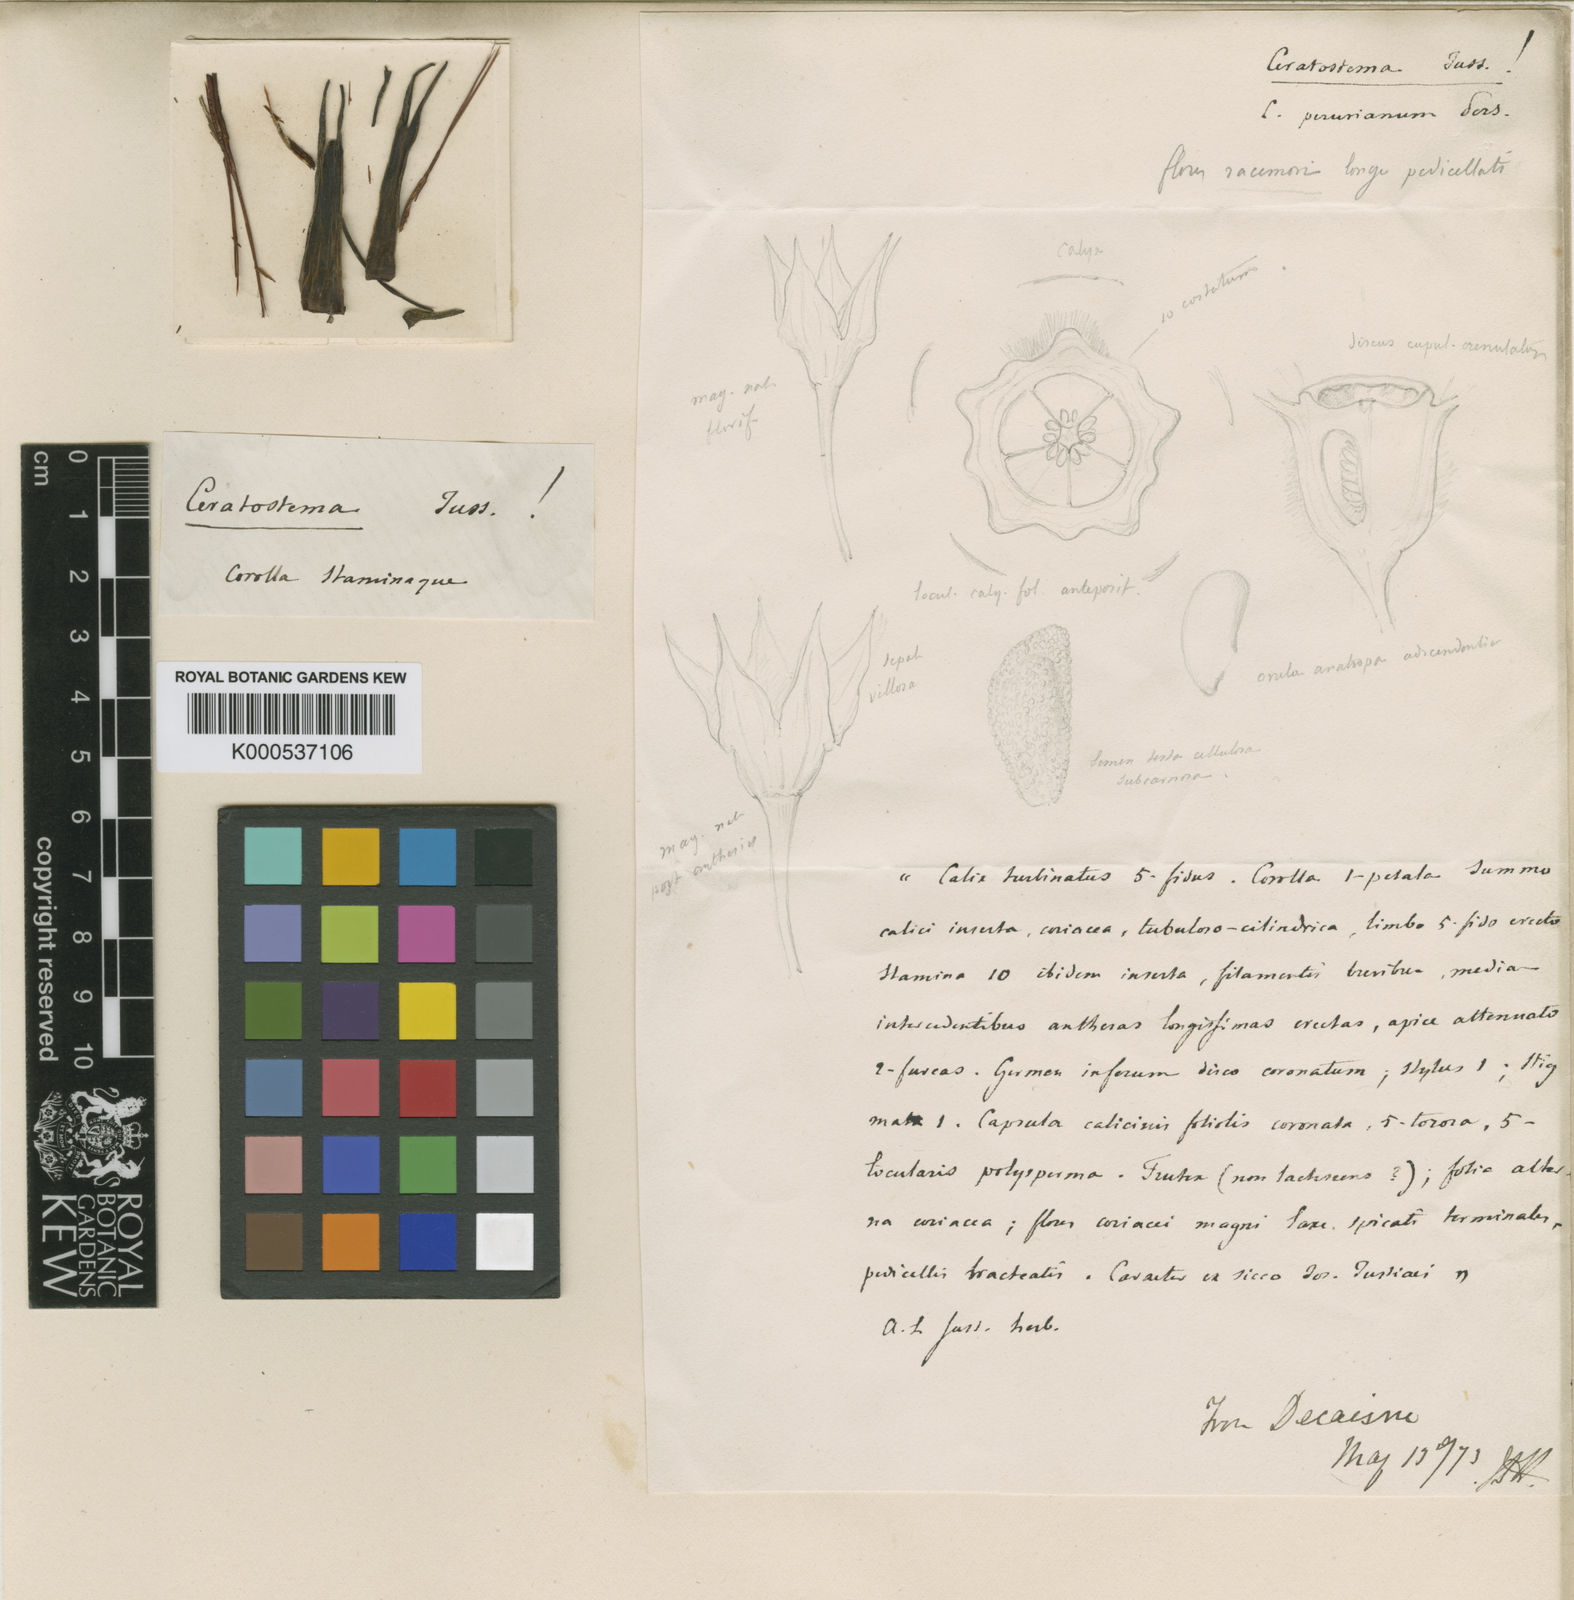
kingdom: Plantae
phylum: Tracheophyta
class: Magnoliopsida
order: Ericales
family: Ericaceae
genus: Ceratostema
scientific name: Ceratostema peruvianum
